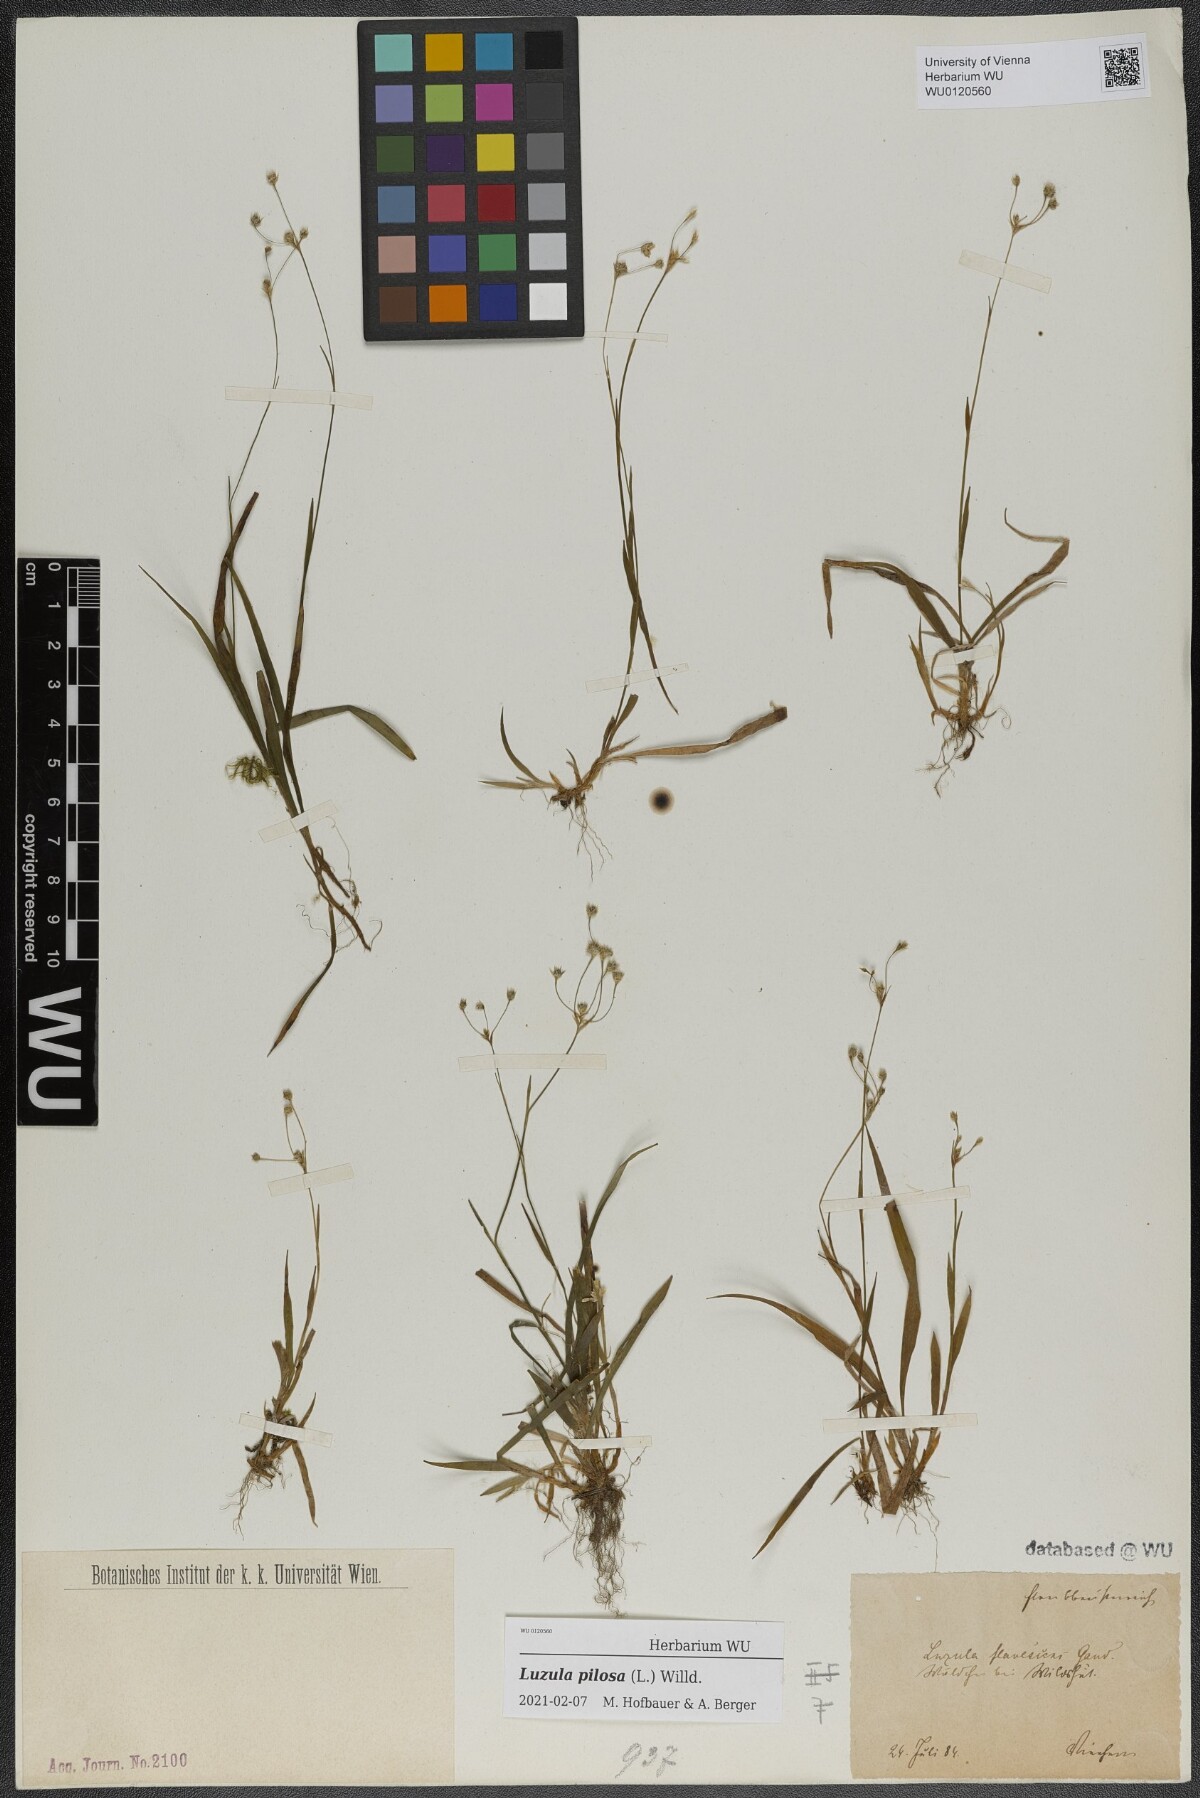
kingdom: Plantae
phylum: Tracheophyta
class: Liliopsida
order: Poales
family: Juncaceae
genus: Luzula
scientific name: Luzula pilosa
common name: Hairy wood-rush
